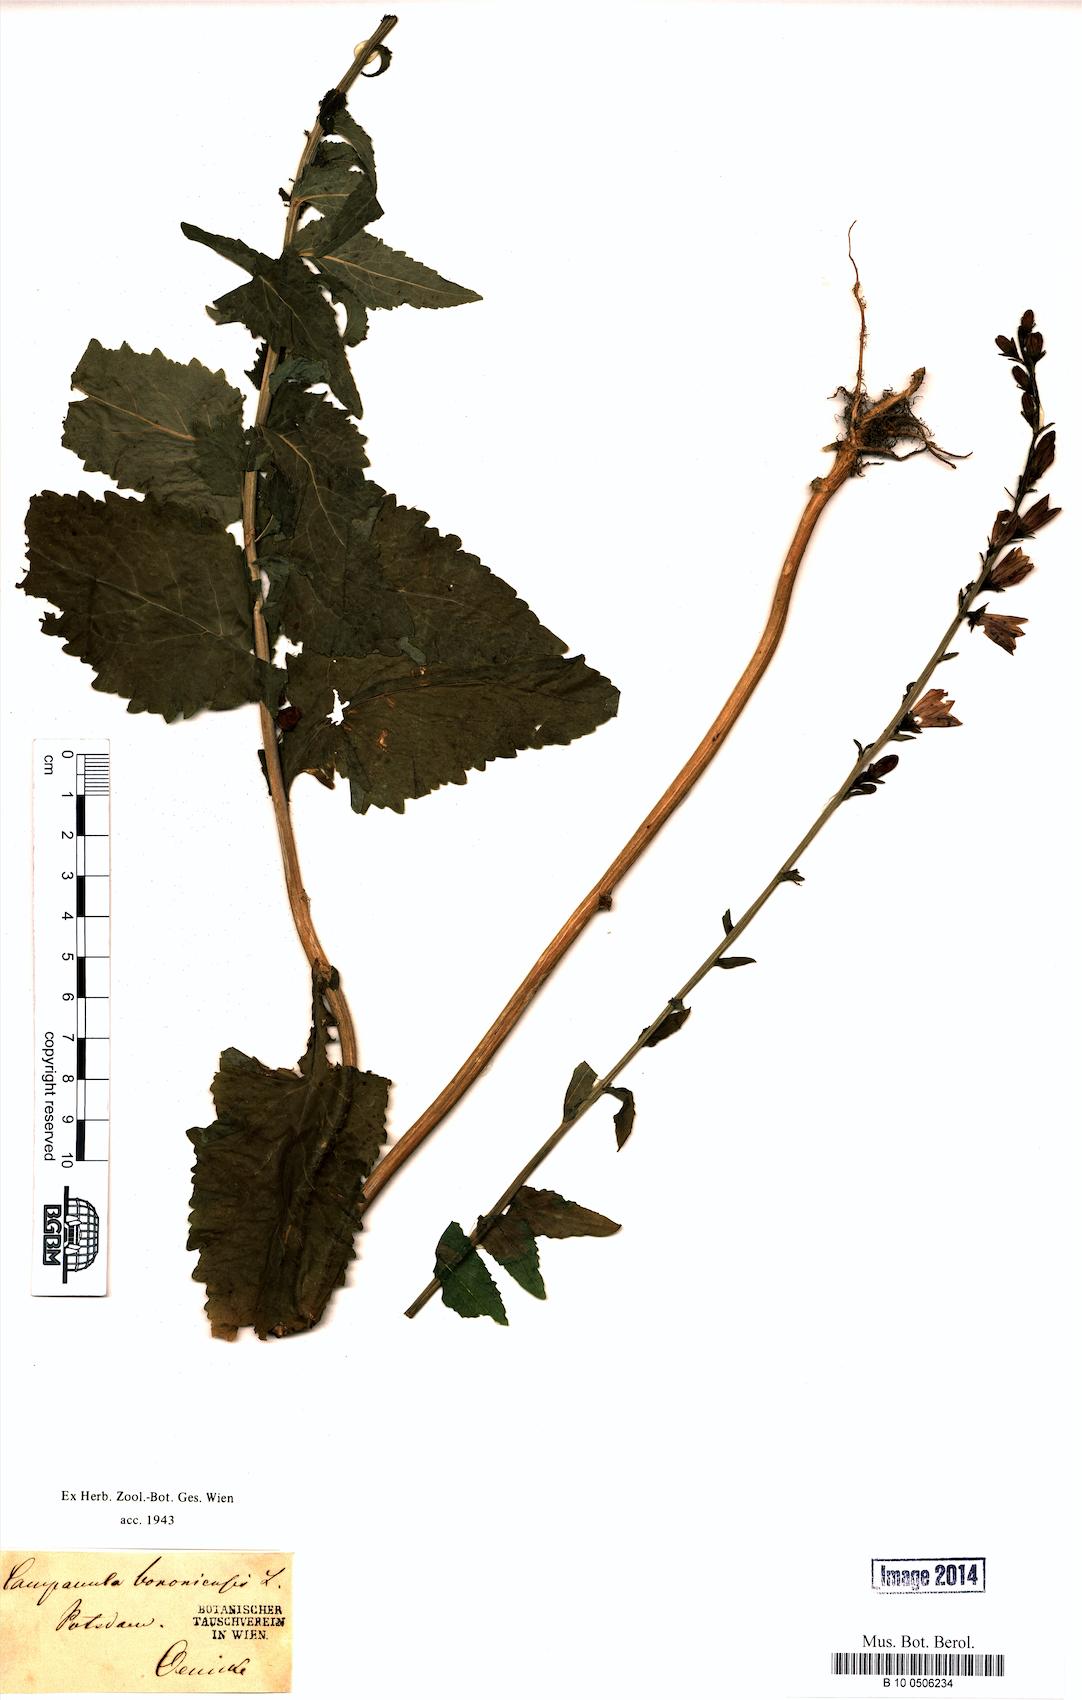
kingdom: Plantae
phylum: Tracheophyta
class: Magnoliopsida
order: Asterales
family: Campanulaceae
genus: Campanula
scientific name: Campanula bononiensis
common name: Pale bellflower
